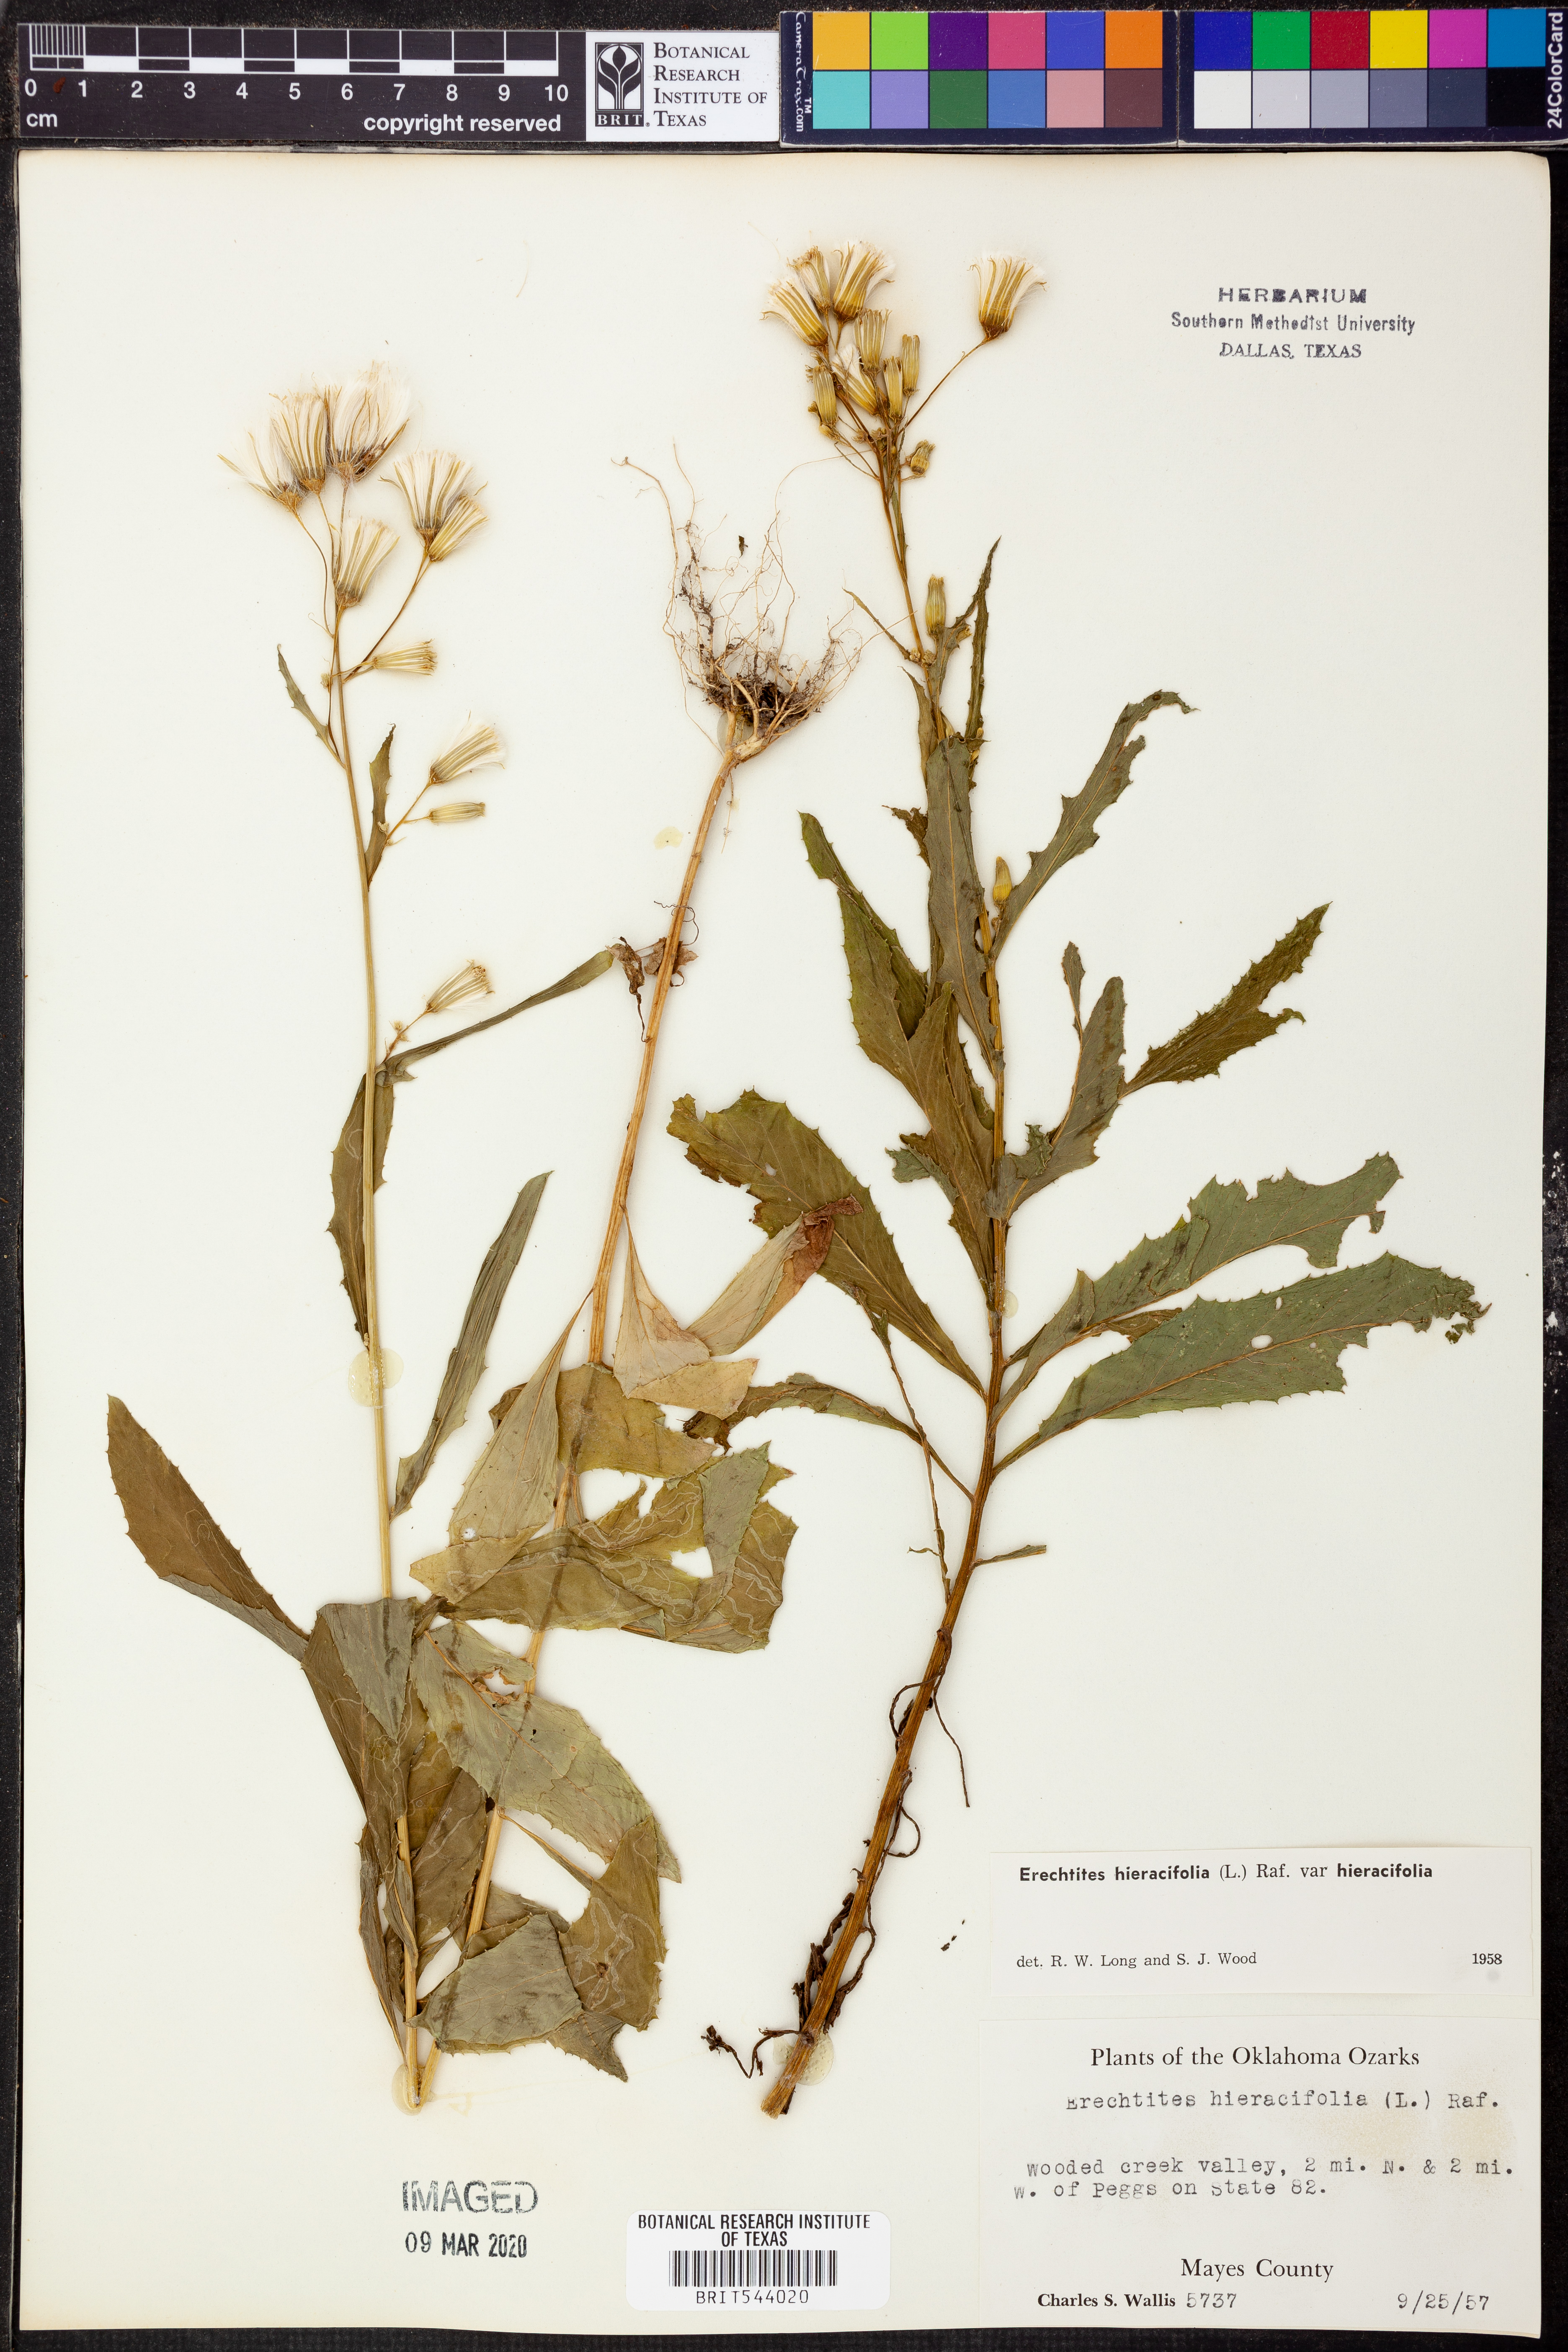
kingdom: Plantae
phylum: Tracheophyta
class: Magnoliopsida
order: Asterales
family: Asteraceae
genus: Erechtites
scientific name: Erechtites hieraciifolius
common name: American burnweed
